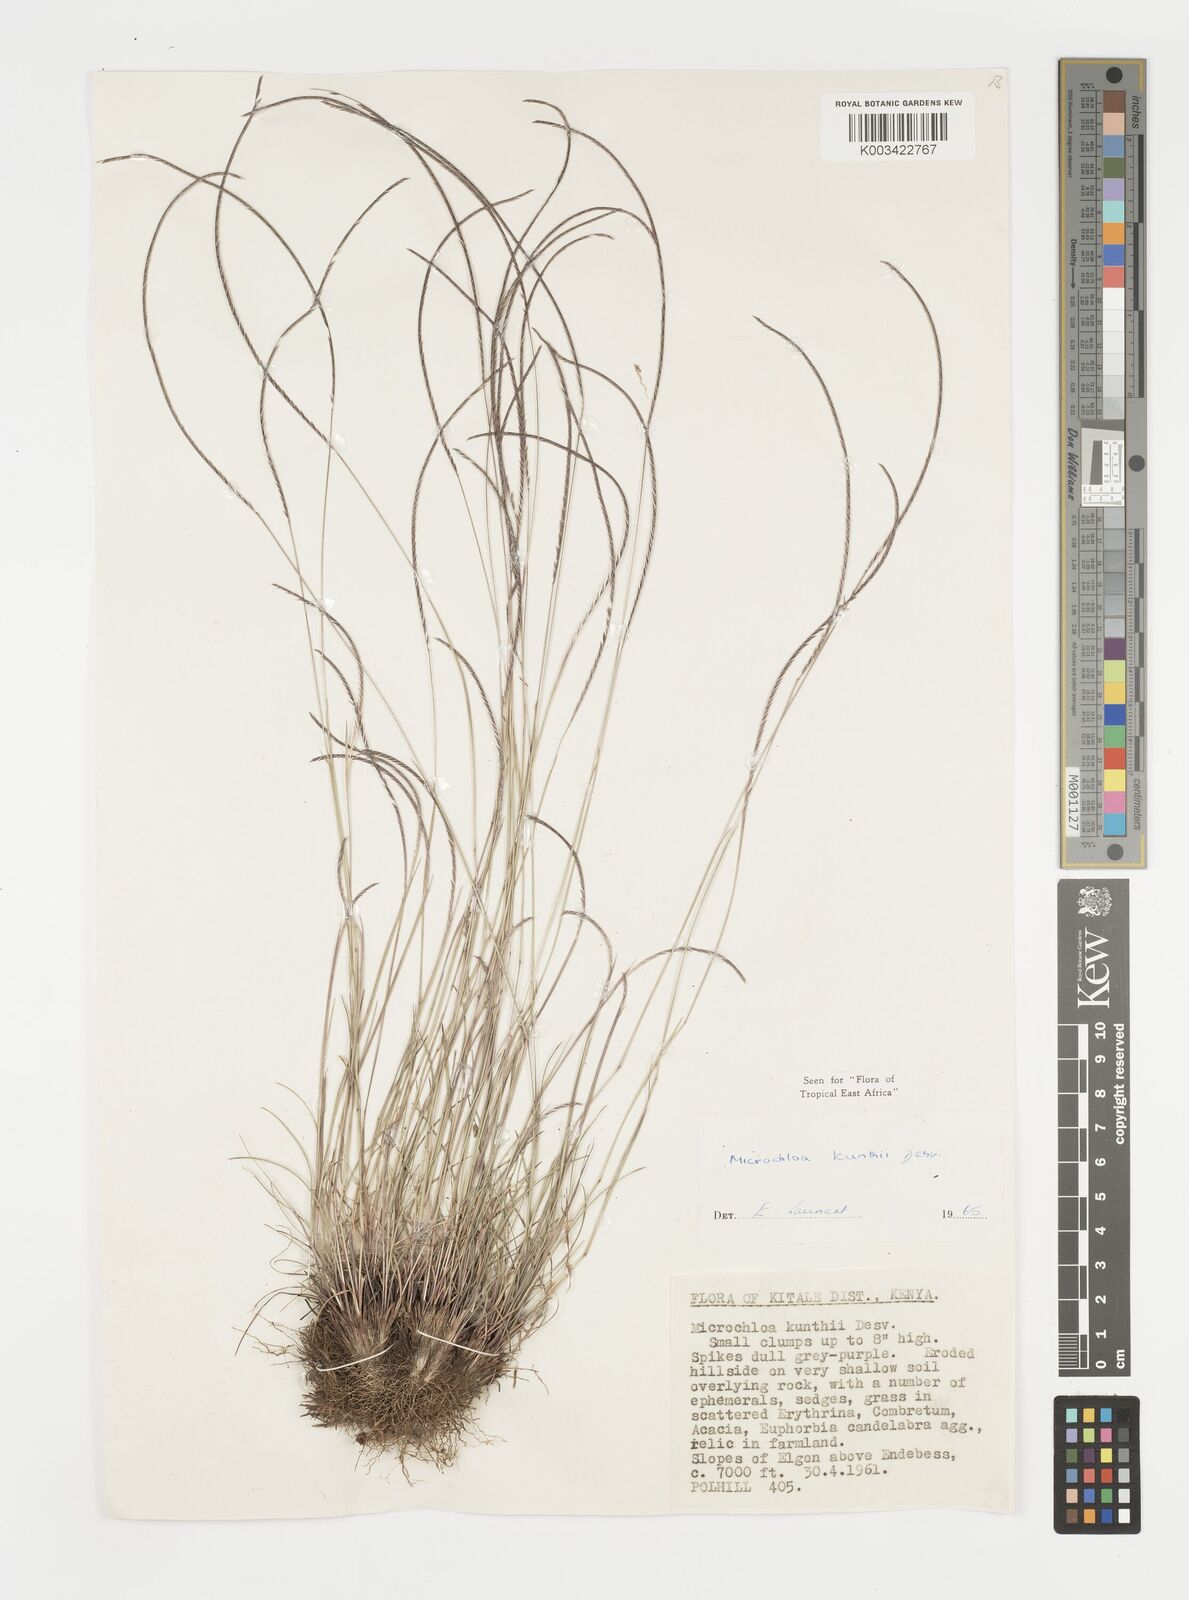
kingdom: Plantae
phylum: Tracheophyta
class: Liliopsida
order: Poales
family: Poaceae
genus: Microchloa
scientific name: Microchloa kunthii
